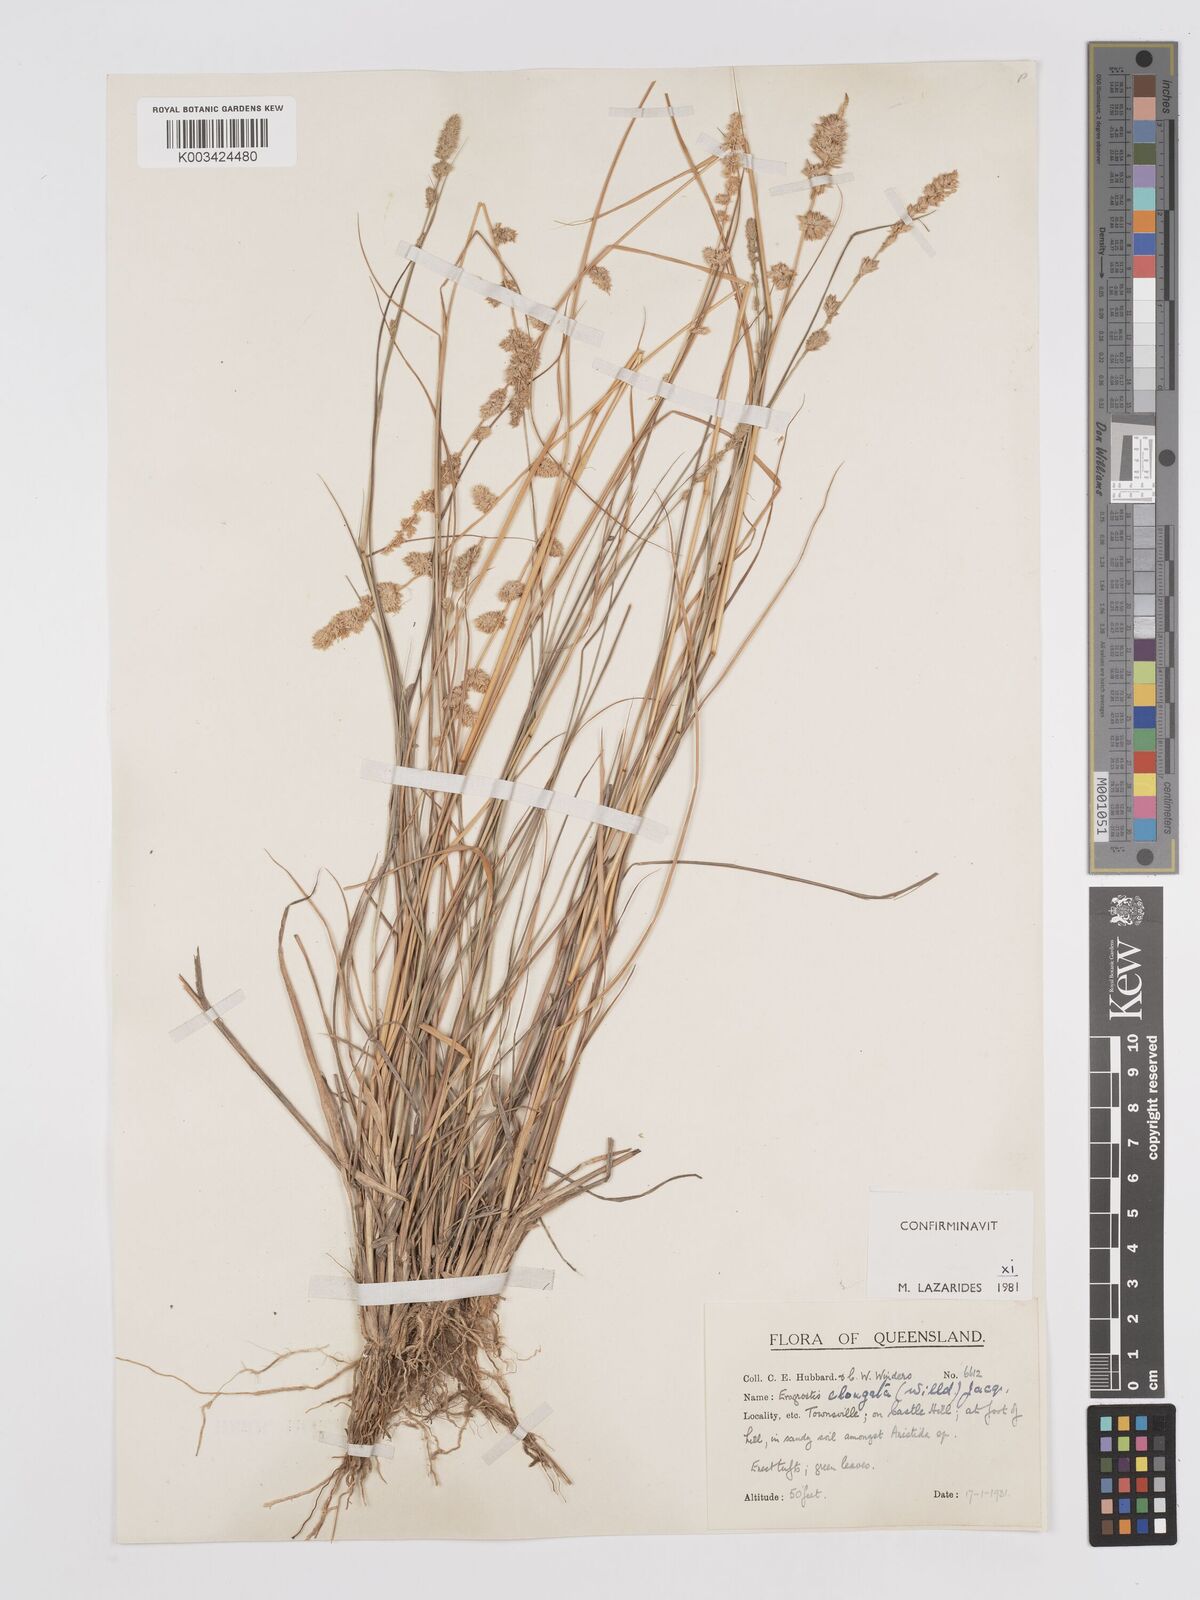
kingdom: Plantae
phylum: Tracheophyta
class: Liliopsida
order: Poales
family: Poaceae
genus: Eragrostis
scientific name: Eragrostis elongata
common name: Long lovegrass
